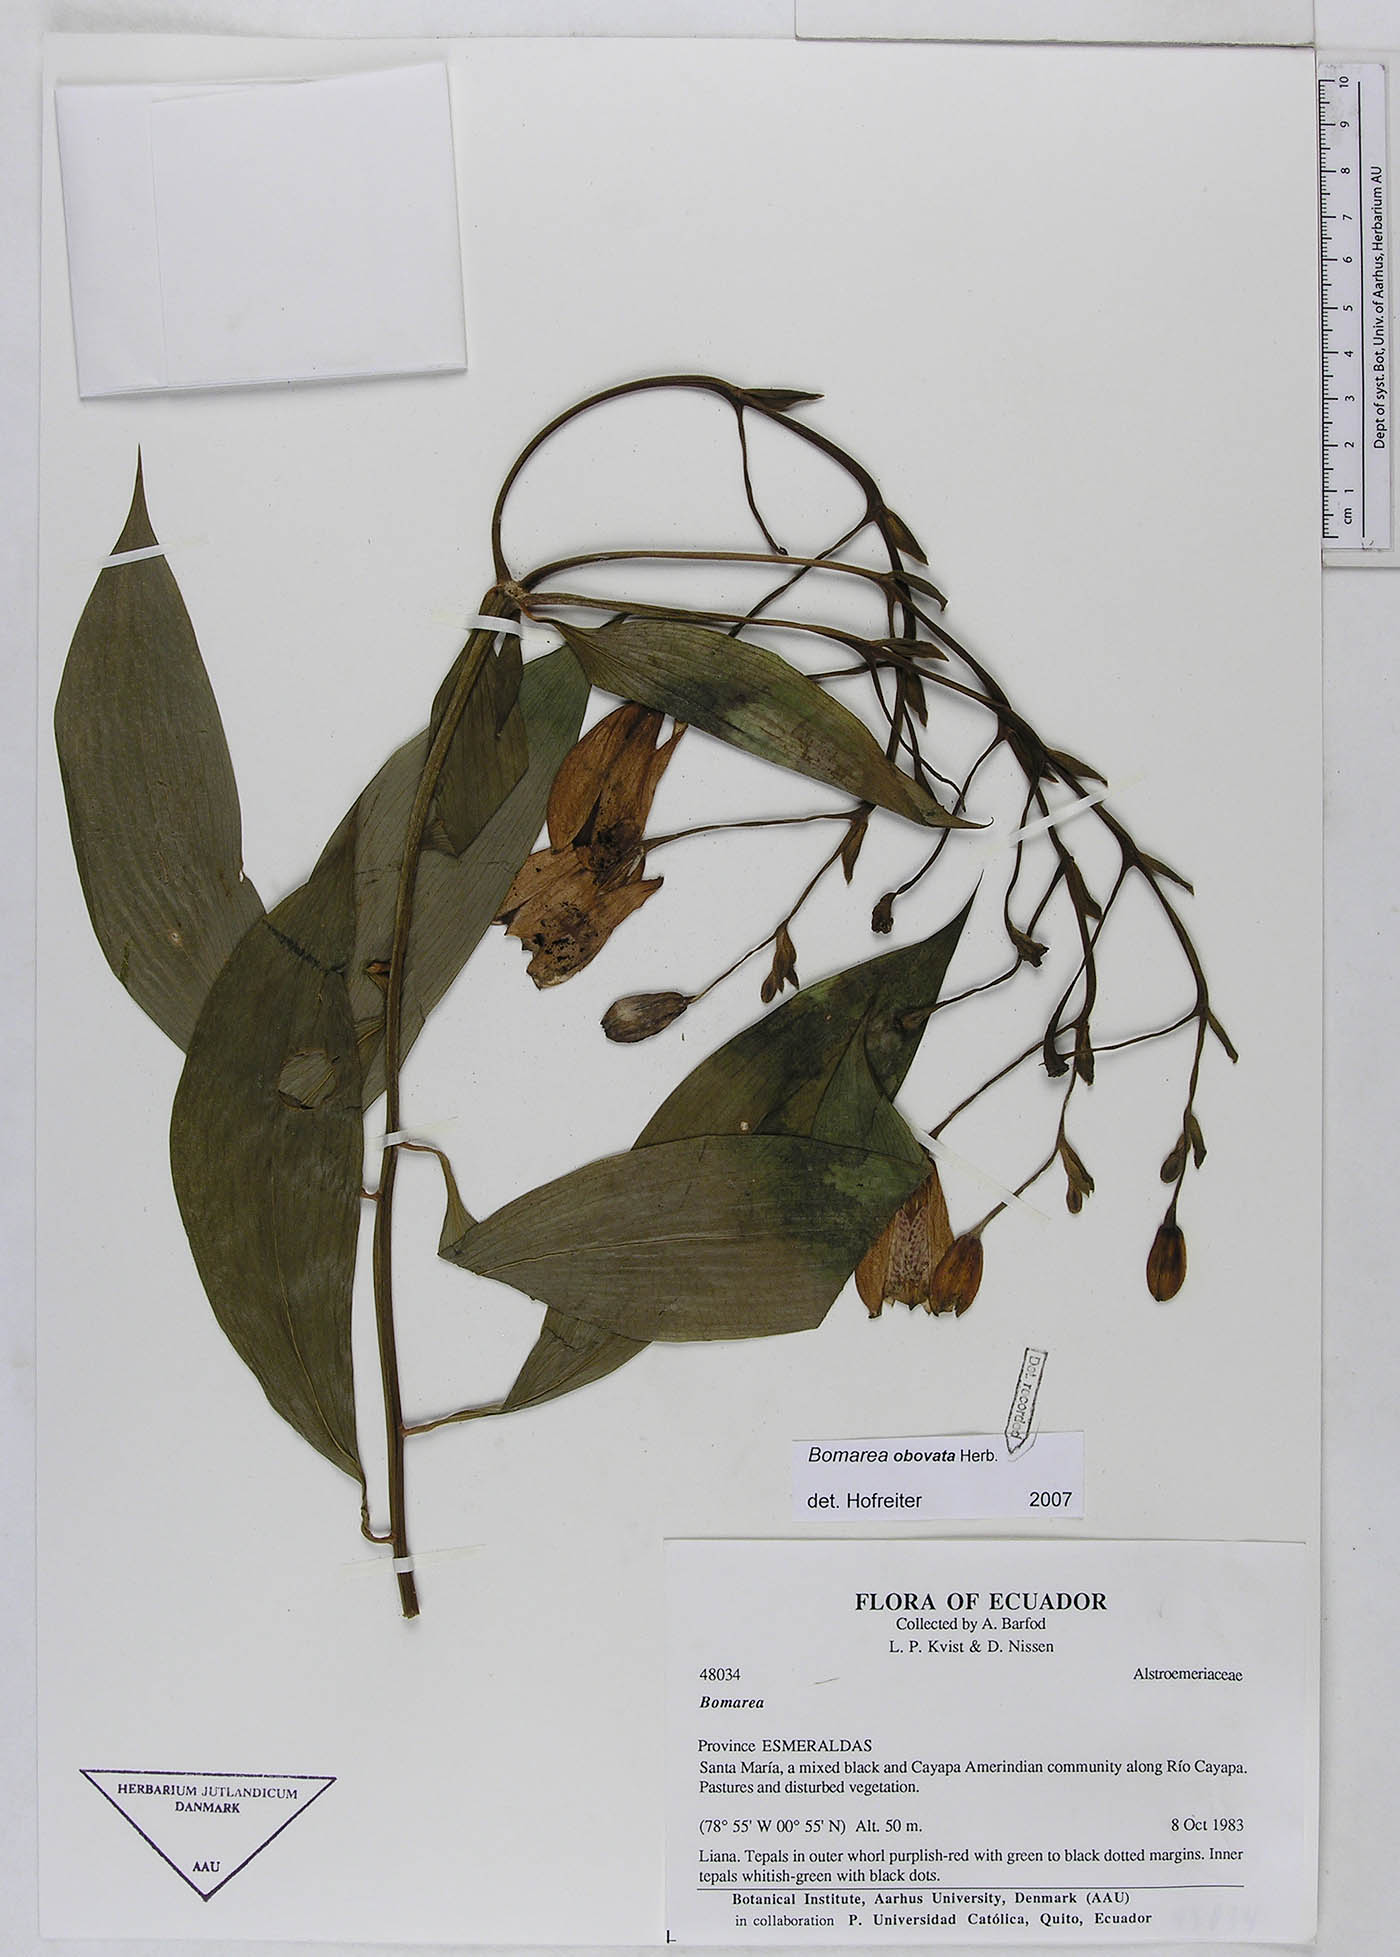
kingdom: Plantae
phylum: Tracheophyta
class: Liliopsida
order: Liliales
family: Alstroemeriaceae
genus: Bomarea
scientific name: Bomarea obovata
